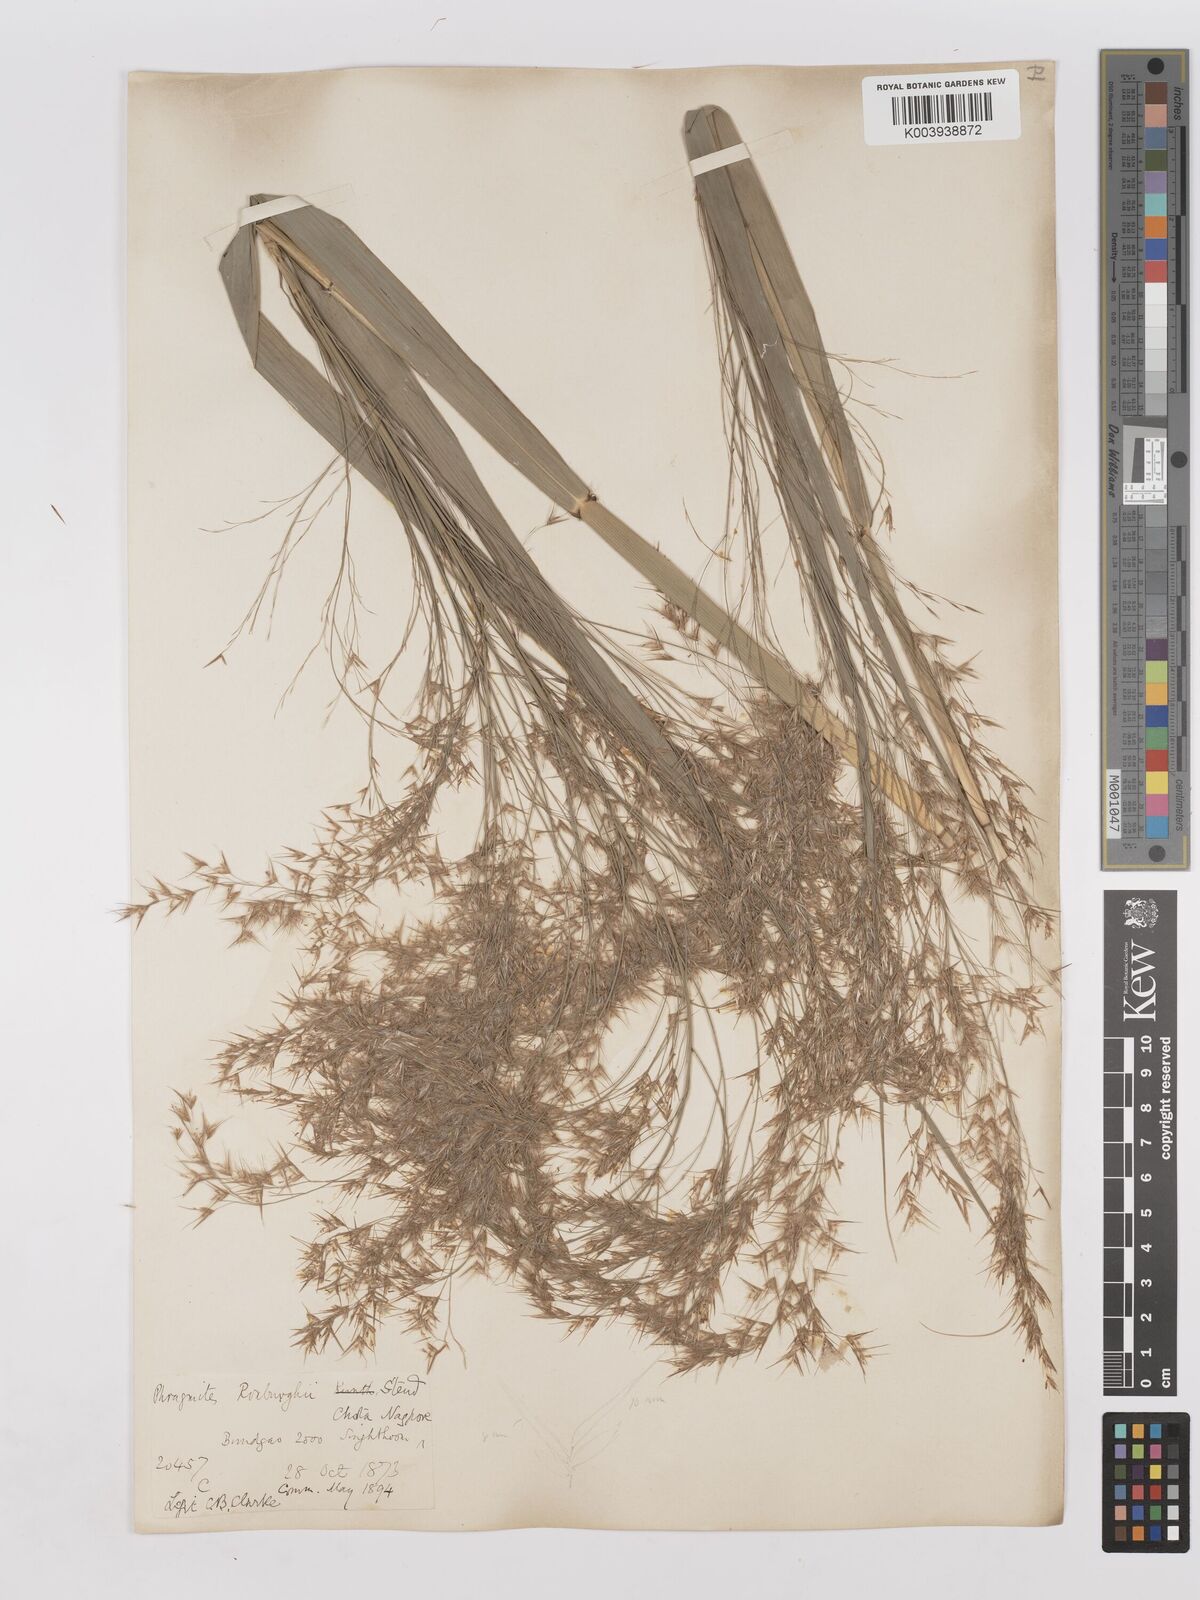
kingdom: Plantae
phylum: Tracheophyta
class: Liliopsida
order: Poales
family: Poaceae
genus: Phragmites
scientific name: Phragmites karka
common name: Tropical reed
